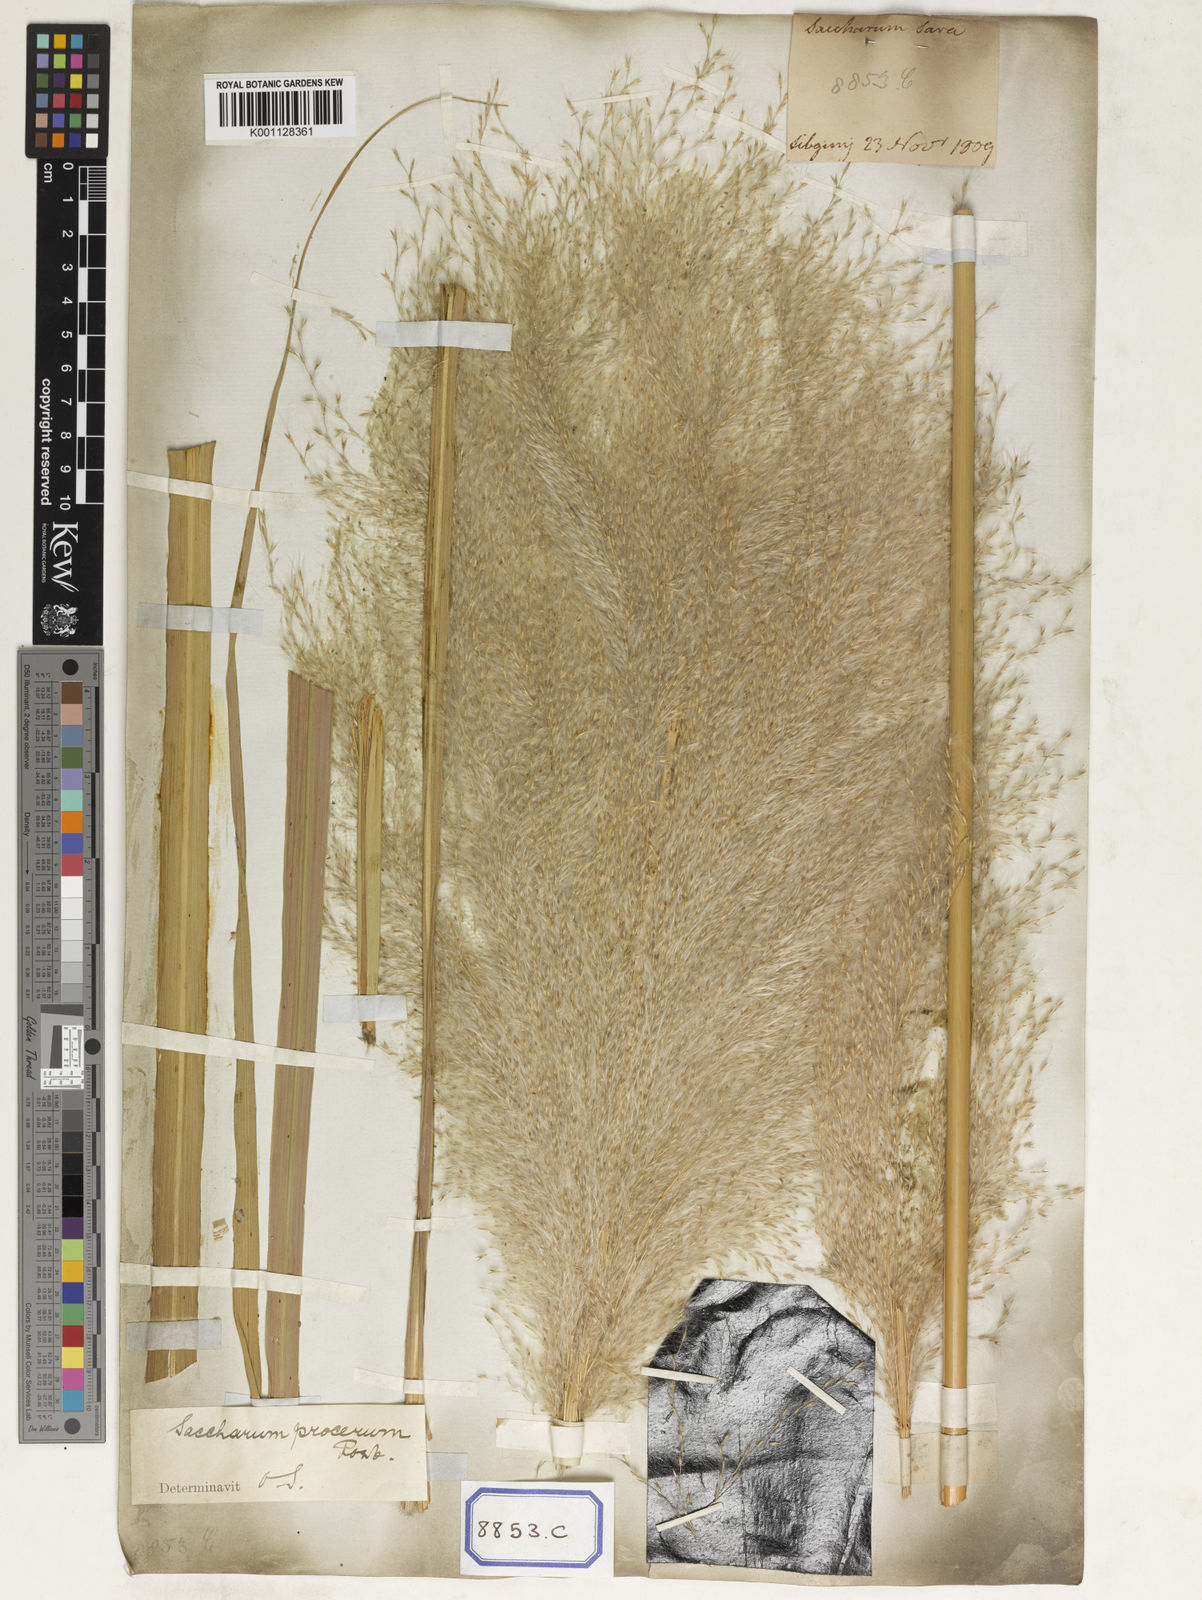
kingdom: Plantae
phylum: Tracheophyta
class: Liliopsida
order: Poales
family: Poaceae
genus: Saccharum
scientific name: Saccharum
